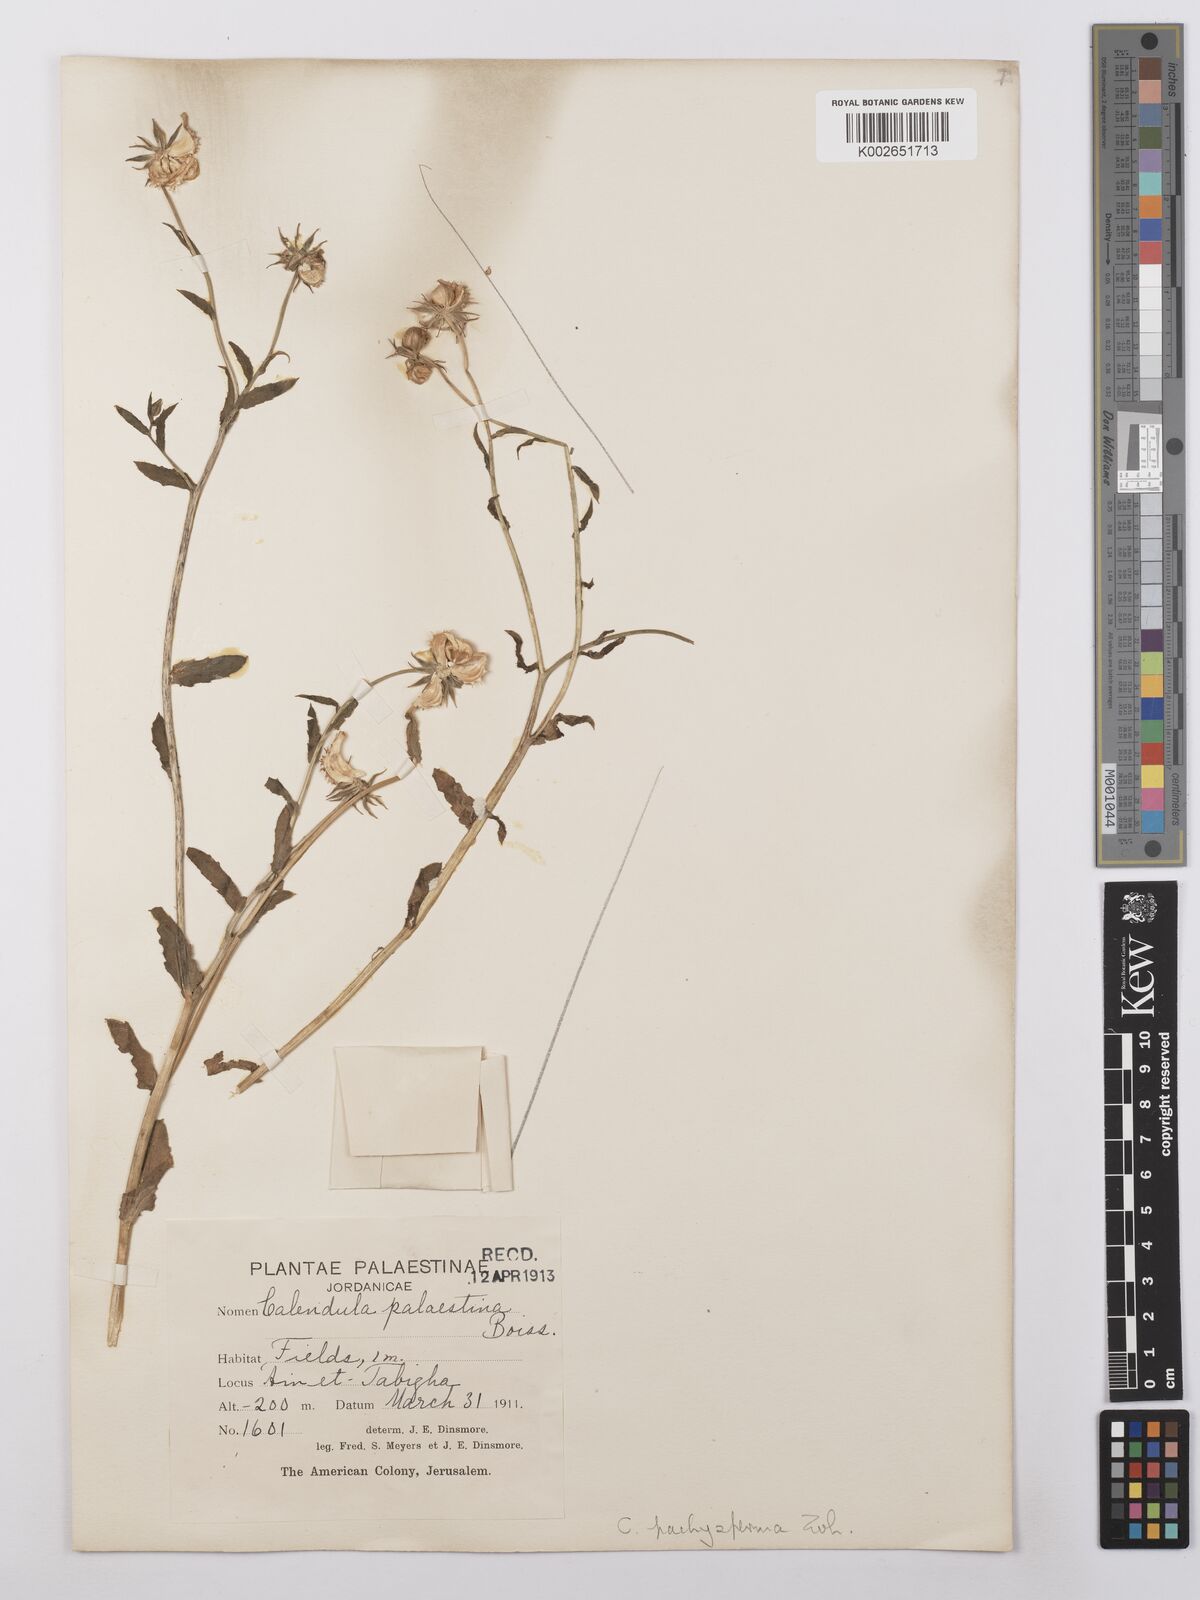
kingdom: Plantae
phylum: Tracheophyta
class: Magnoliopsida
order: Asterales
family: Asteraceae
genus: Calendula
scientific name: Calendula pachysperma
